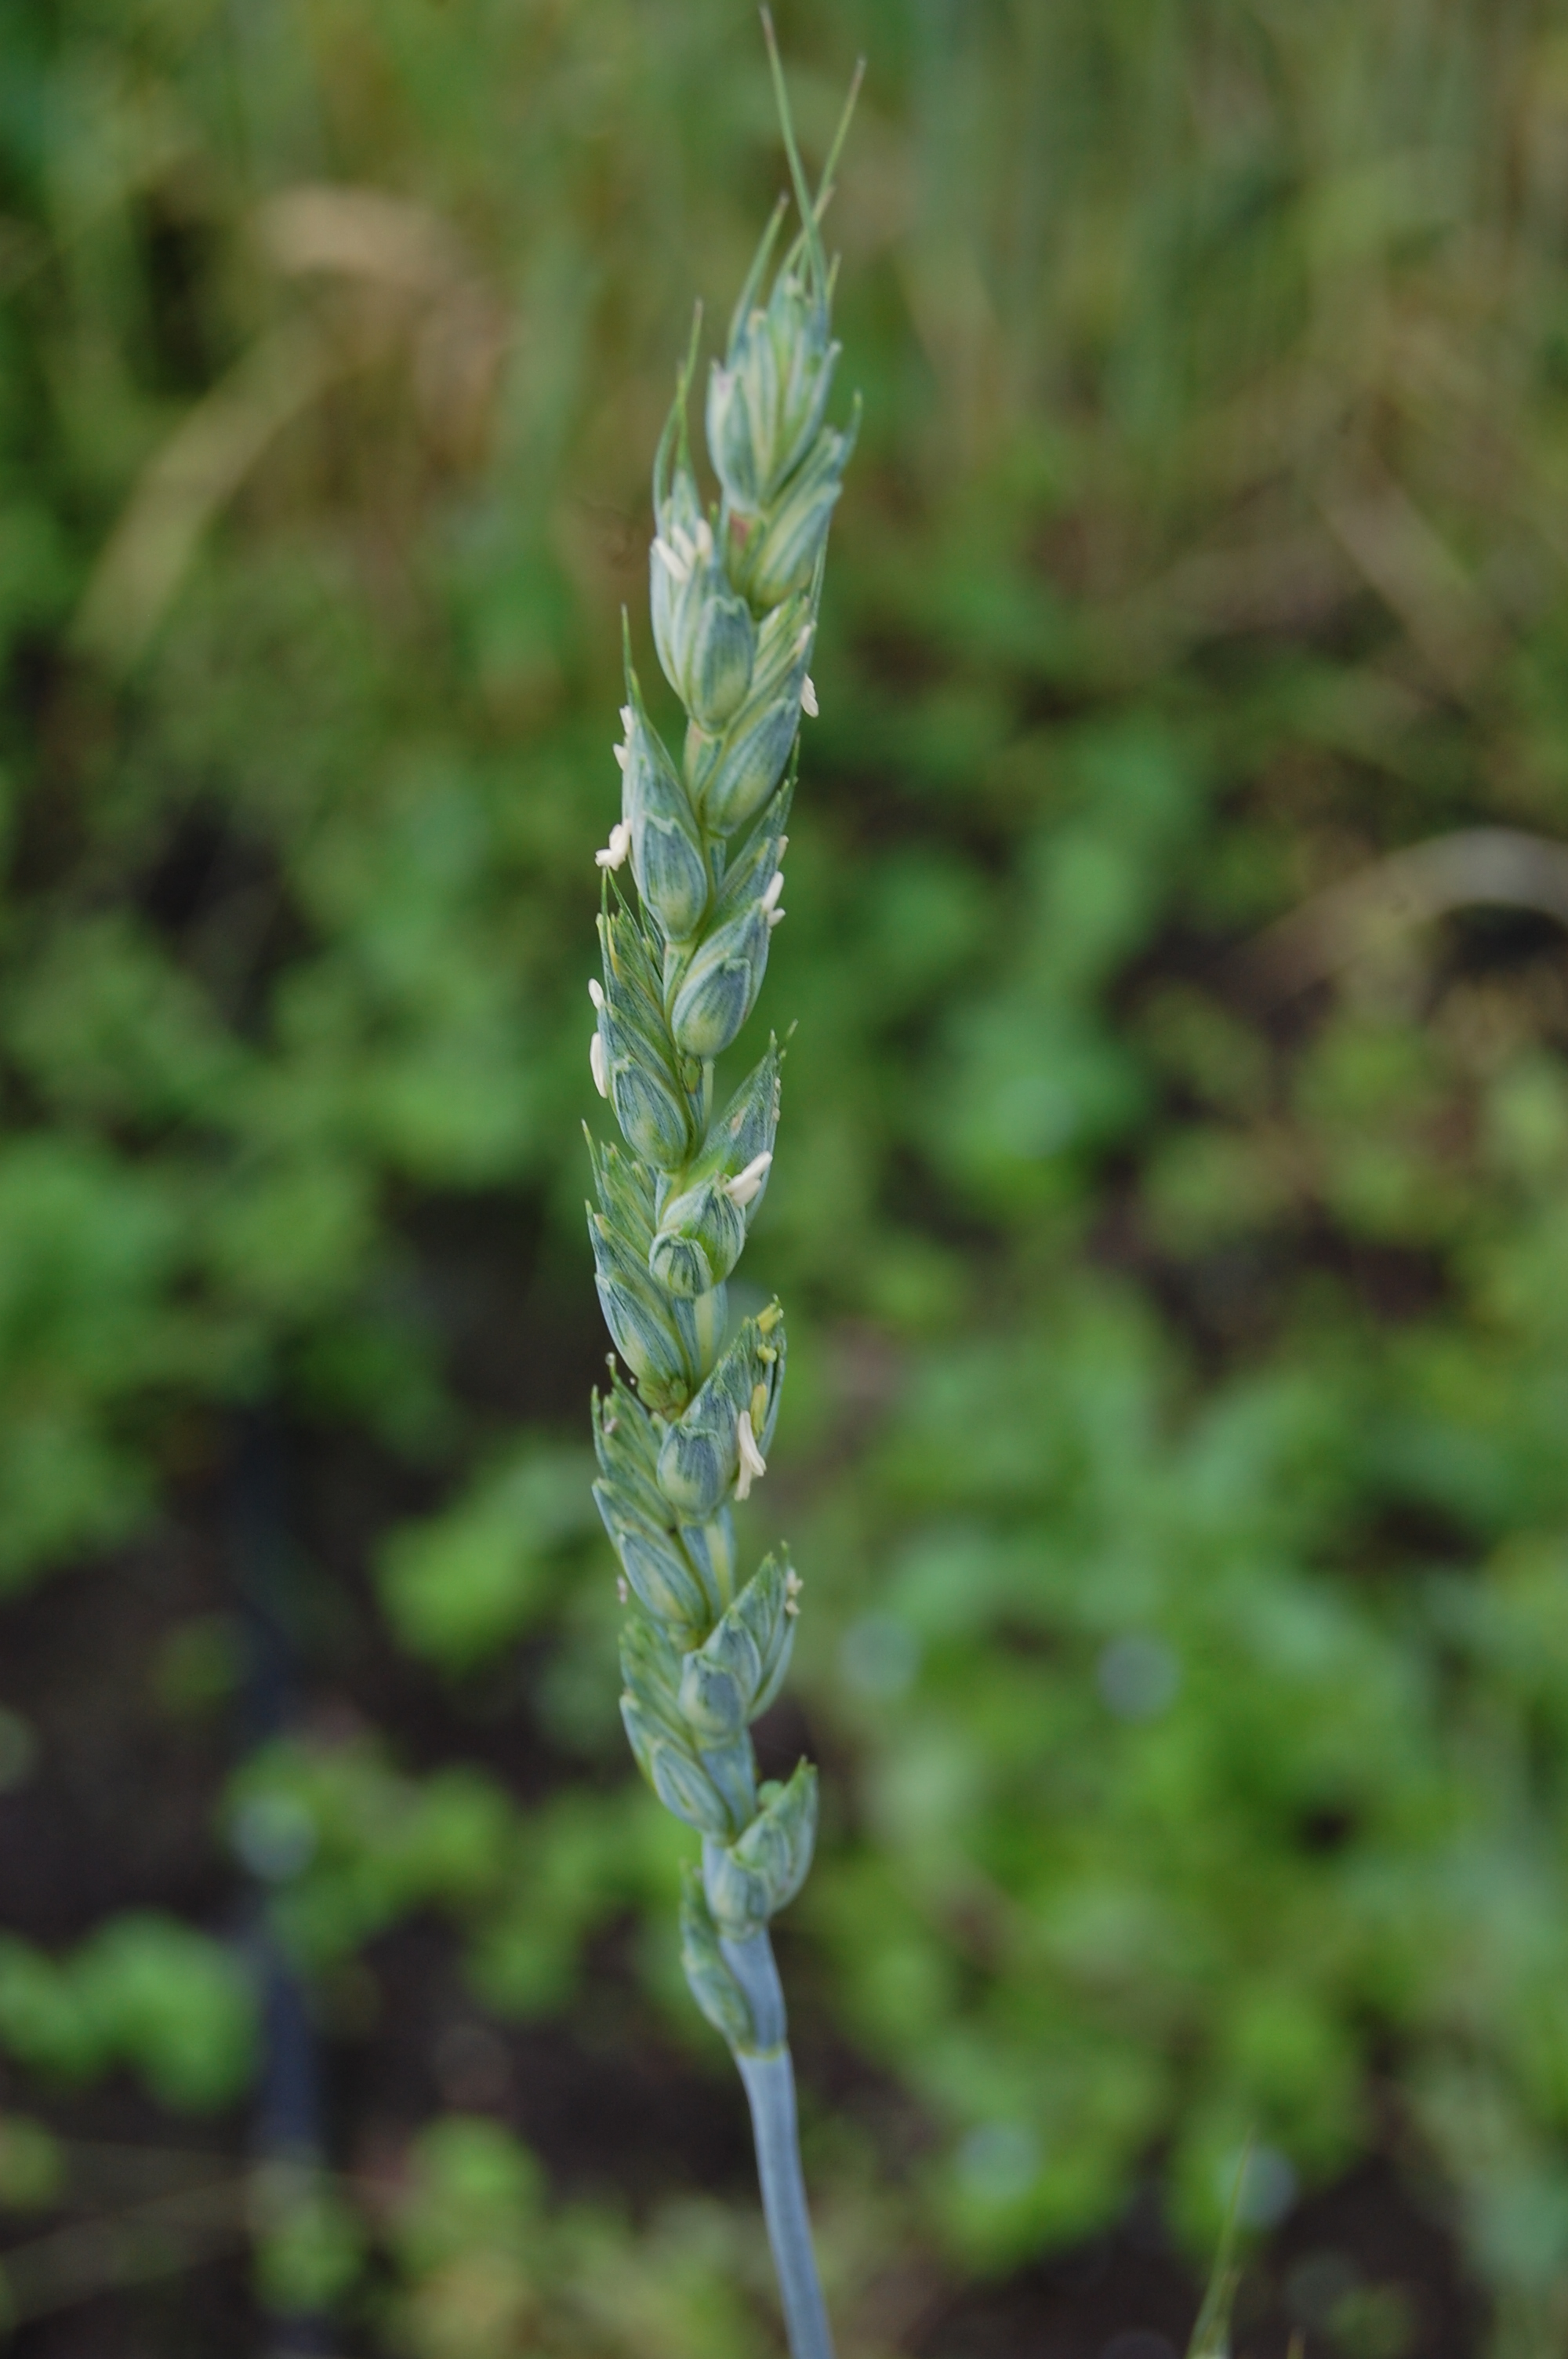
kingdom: Plantae
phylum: Tracheophyta
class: Liliopsida
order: Poales
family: Poaceae
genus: Triticum
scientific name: Triticum aestivum
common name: Common wheat
